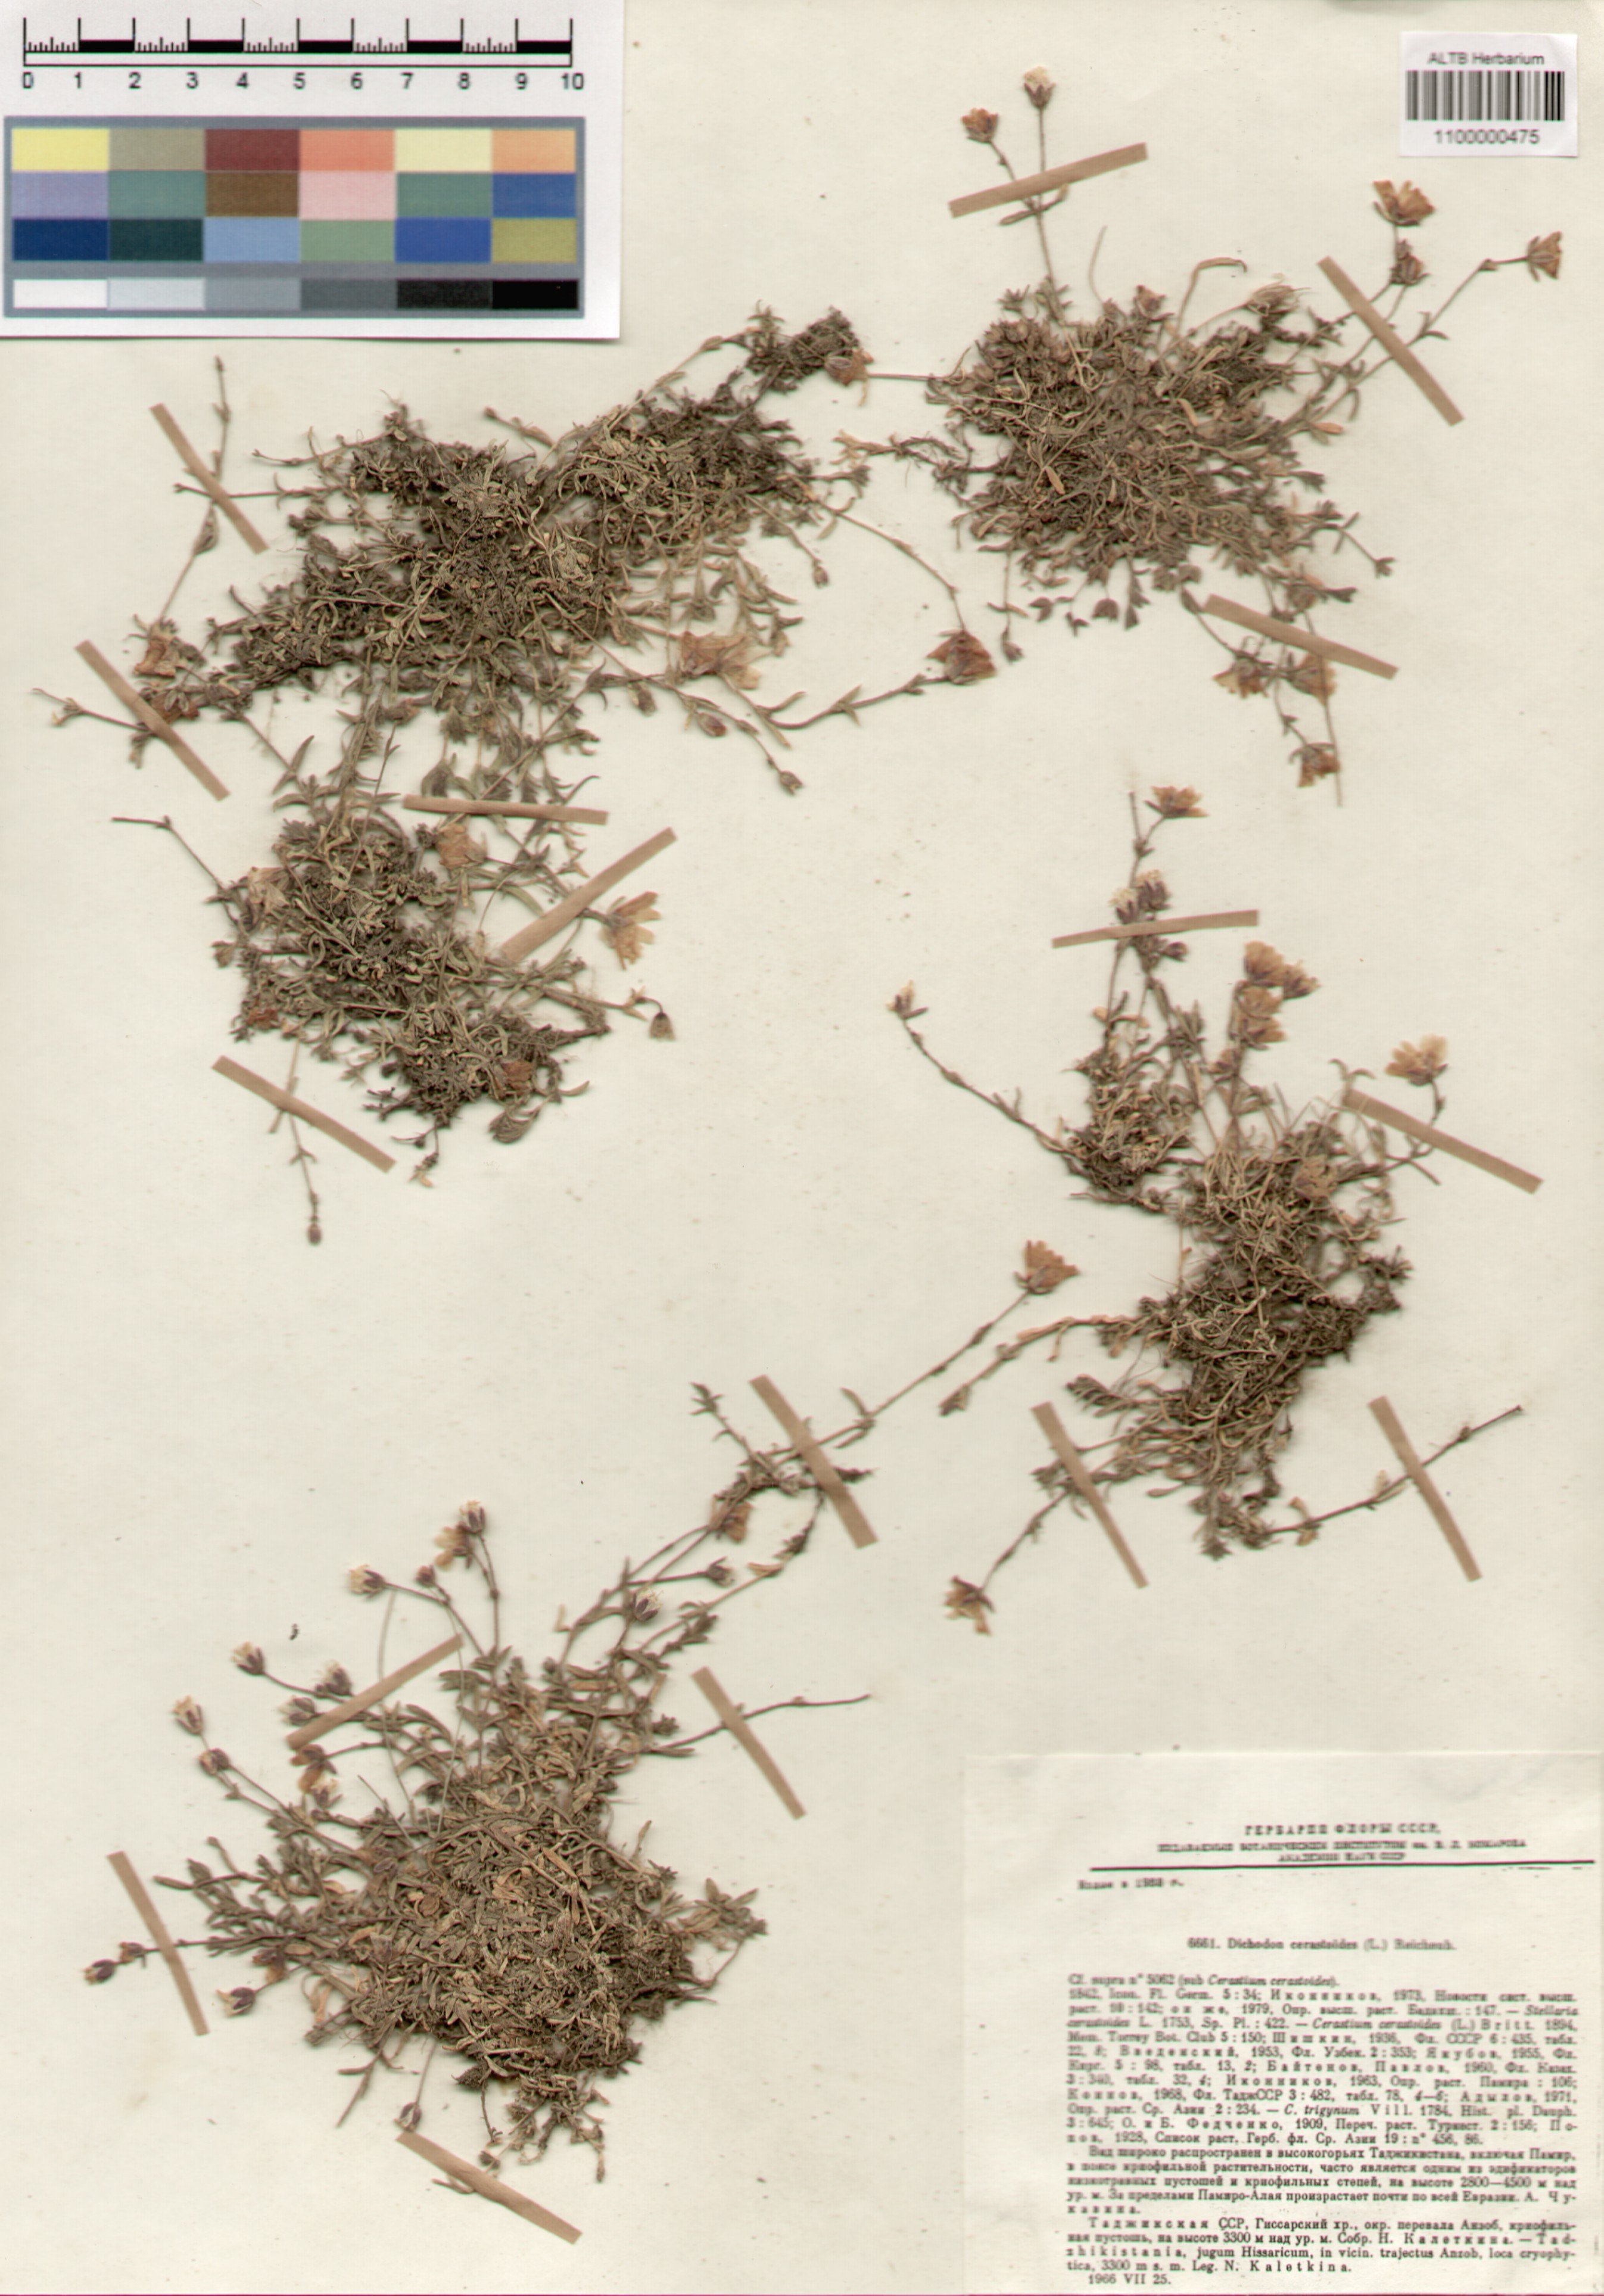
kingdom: Plantae
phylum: Tracheophyta
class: Magnoliopsida
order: Caryophyllales
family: Caryophyllaceae
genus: Dichodon
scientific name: Dichodon cerastoides
